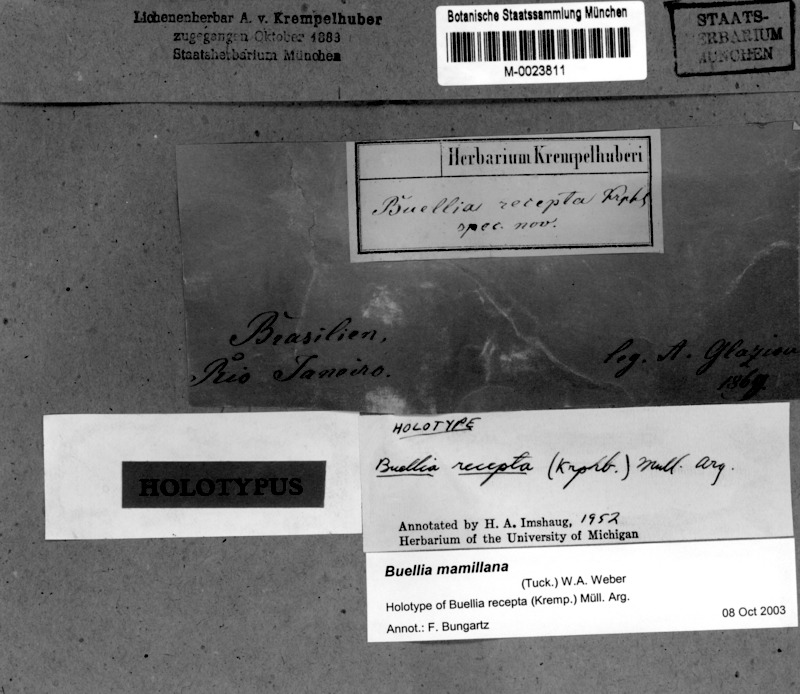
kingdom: Fungi
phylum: Ascomycota
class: Lecanoromycetes
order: Caliciales
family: Caliciaceae
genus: Buellia
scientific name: Buellia mamillana
